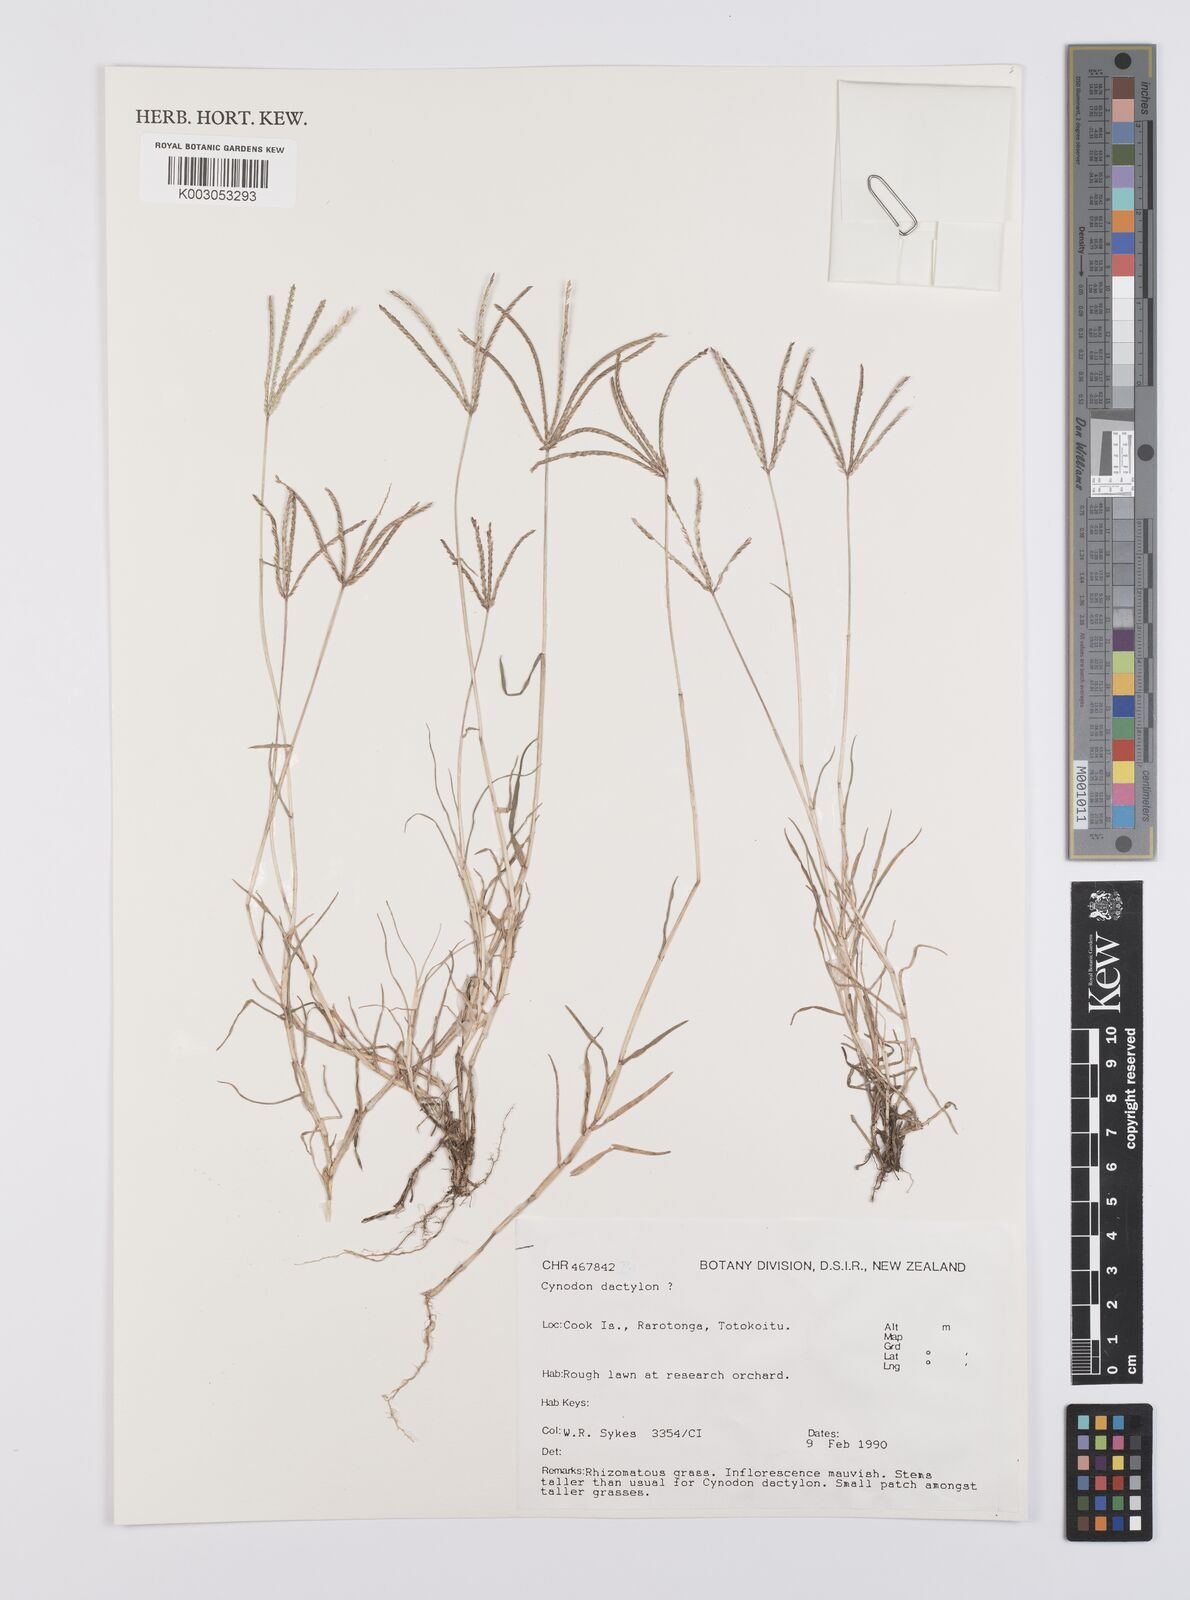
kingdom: Plantae
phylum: Tracheophyta
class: Liliopsida
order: Poales
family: Poaceae
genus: Cynodon
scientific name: Cynodon dactylon
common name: Bermuda grass
